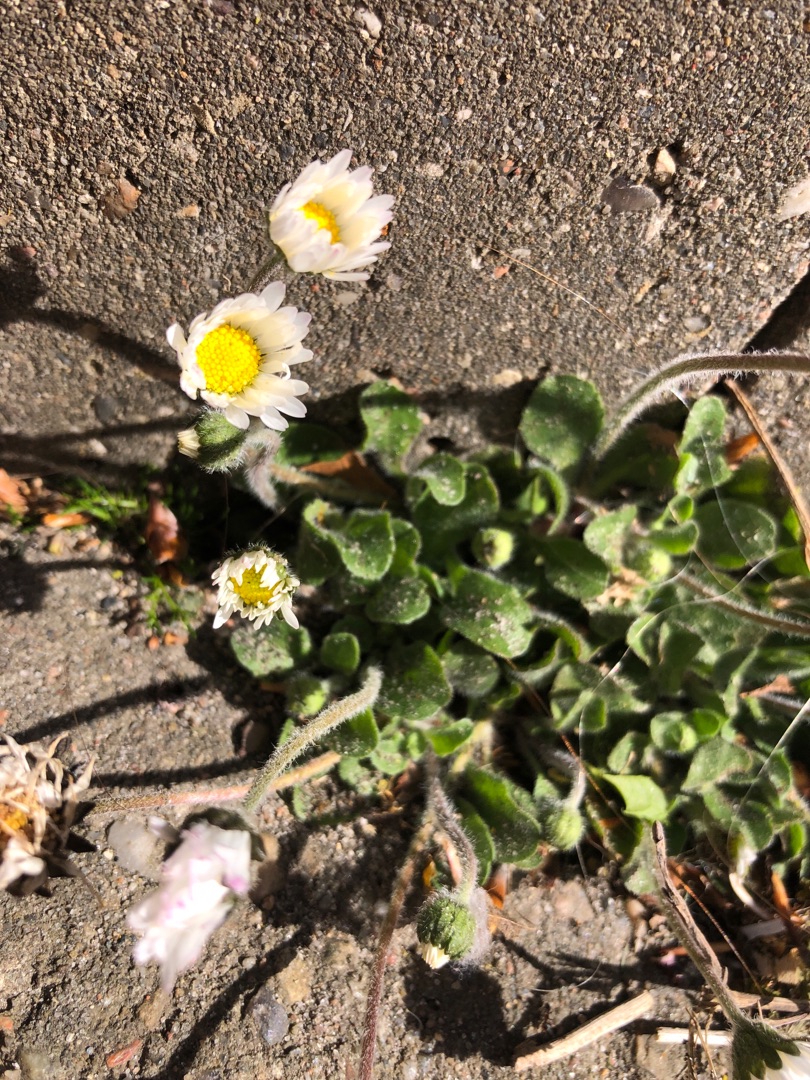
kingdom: Plantae
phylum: Tracheophyta
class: Magnoliopsida
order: Asterales
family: Asteraceae
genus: Bellis
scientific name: Bellis perennis
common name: Tusindfryd
